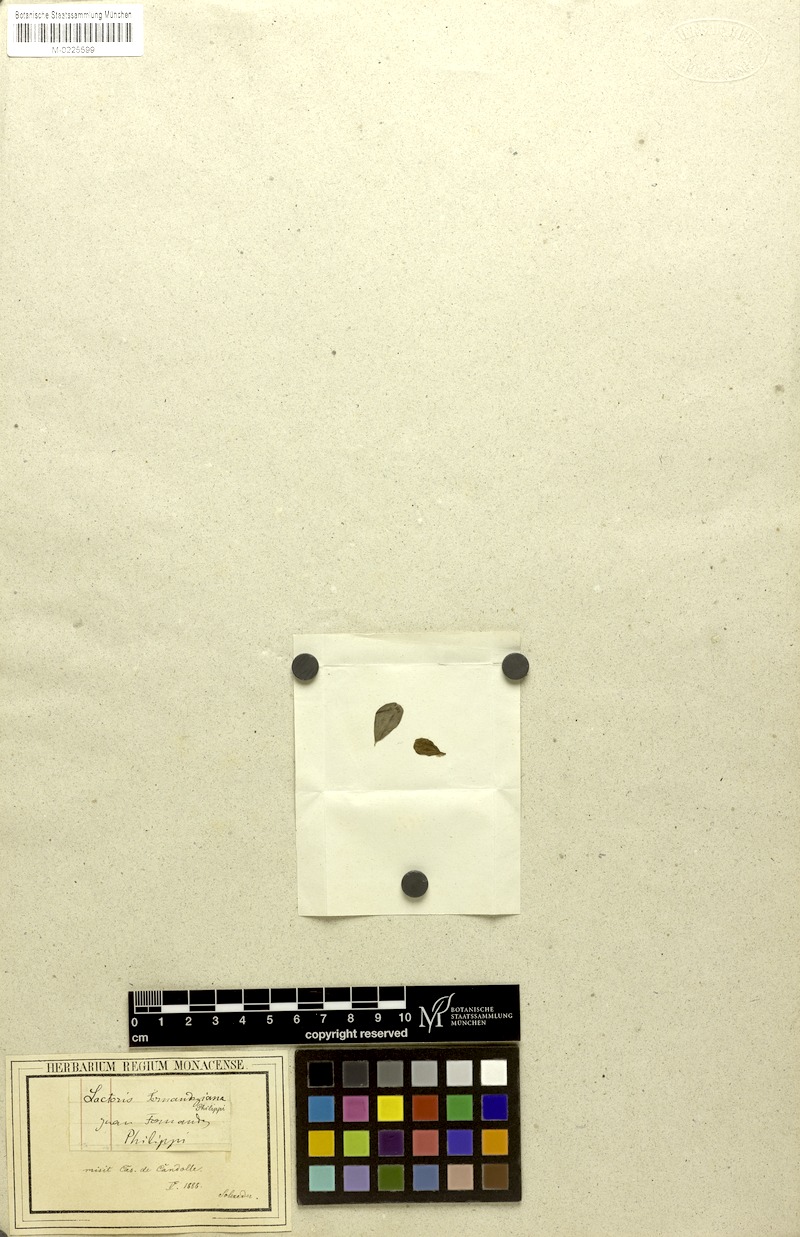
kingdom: Plantae
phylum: Tracheophyta
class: Magnoliopsida
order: Piperales
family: Aristolochiaceae
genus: Lactoris
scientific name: Lactoris fernandeziana
